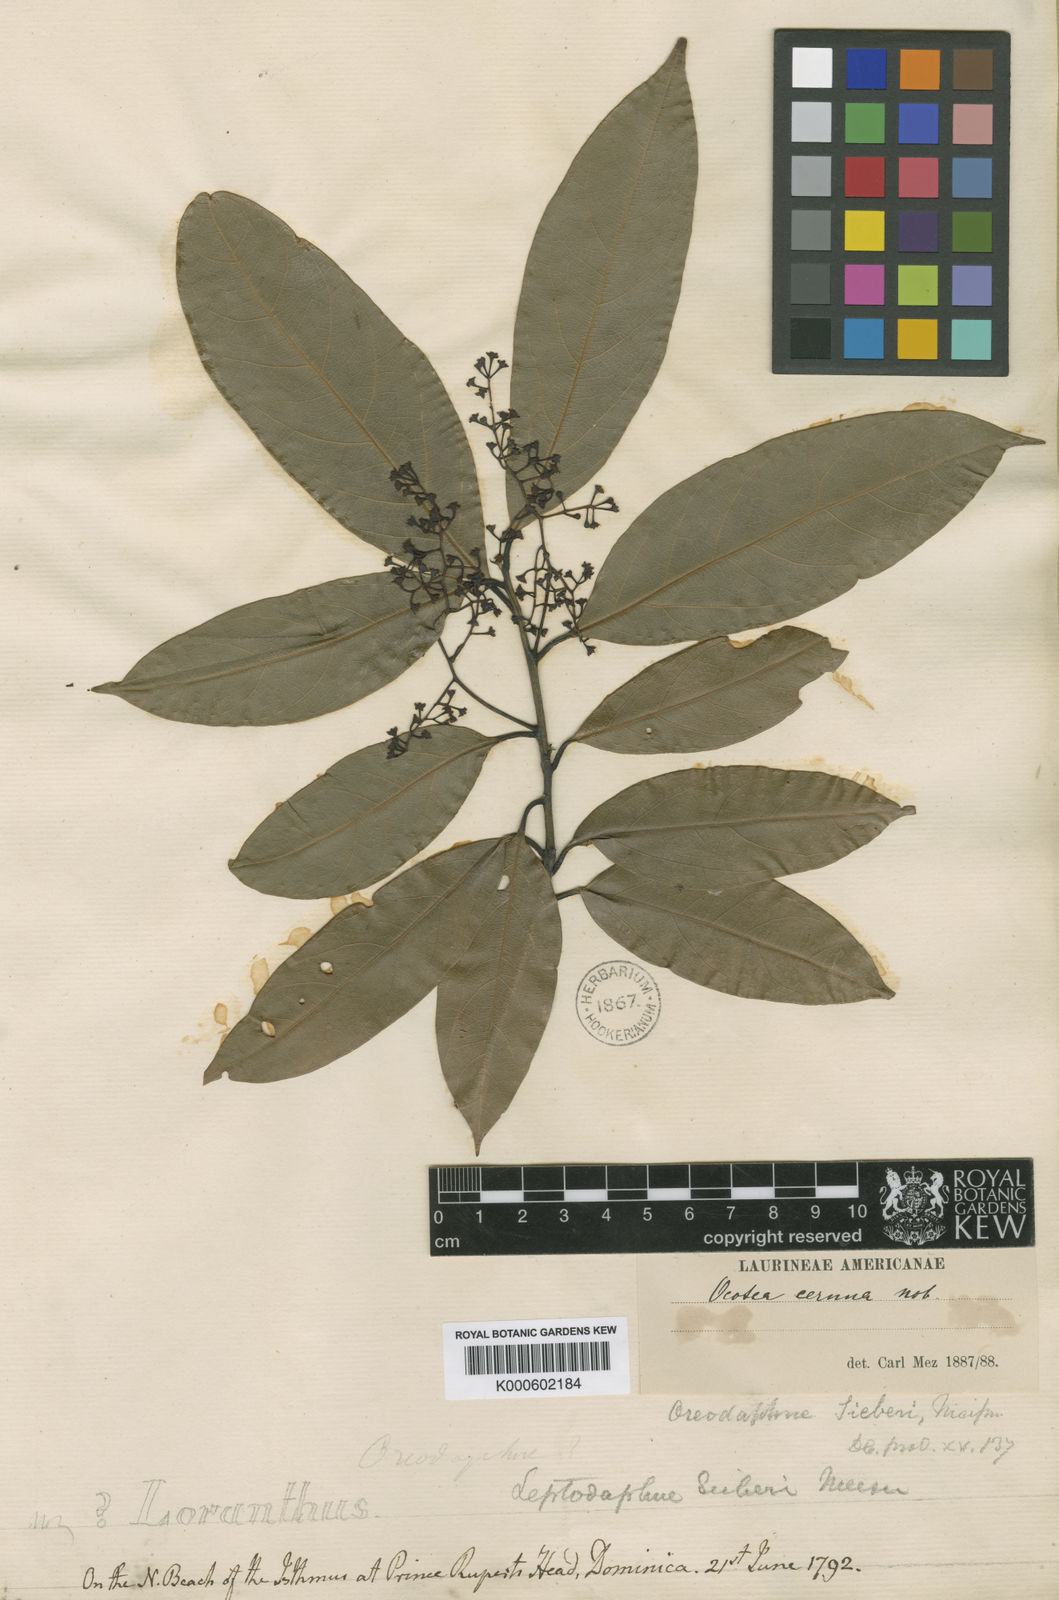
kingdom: Plantae
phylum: Tracheophyta
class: Magnoliopsida
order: Laurales
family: Lauraceae
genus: Ocotea
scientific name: Ocotea leptobotra
